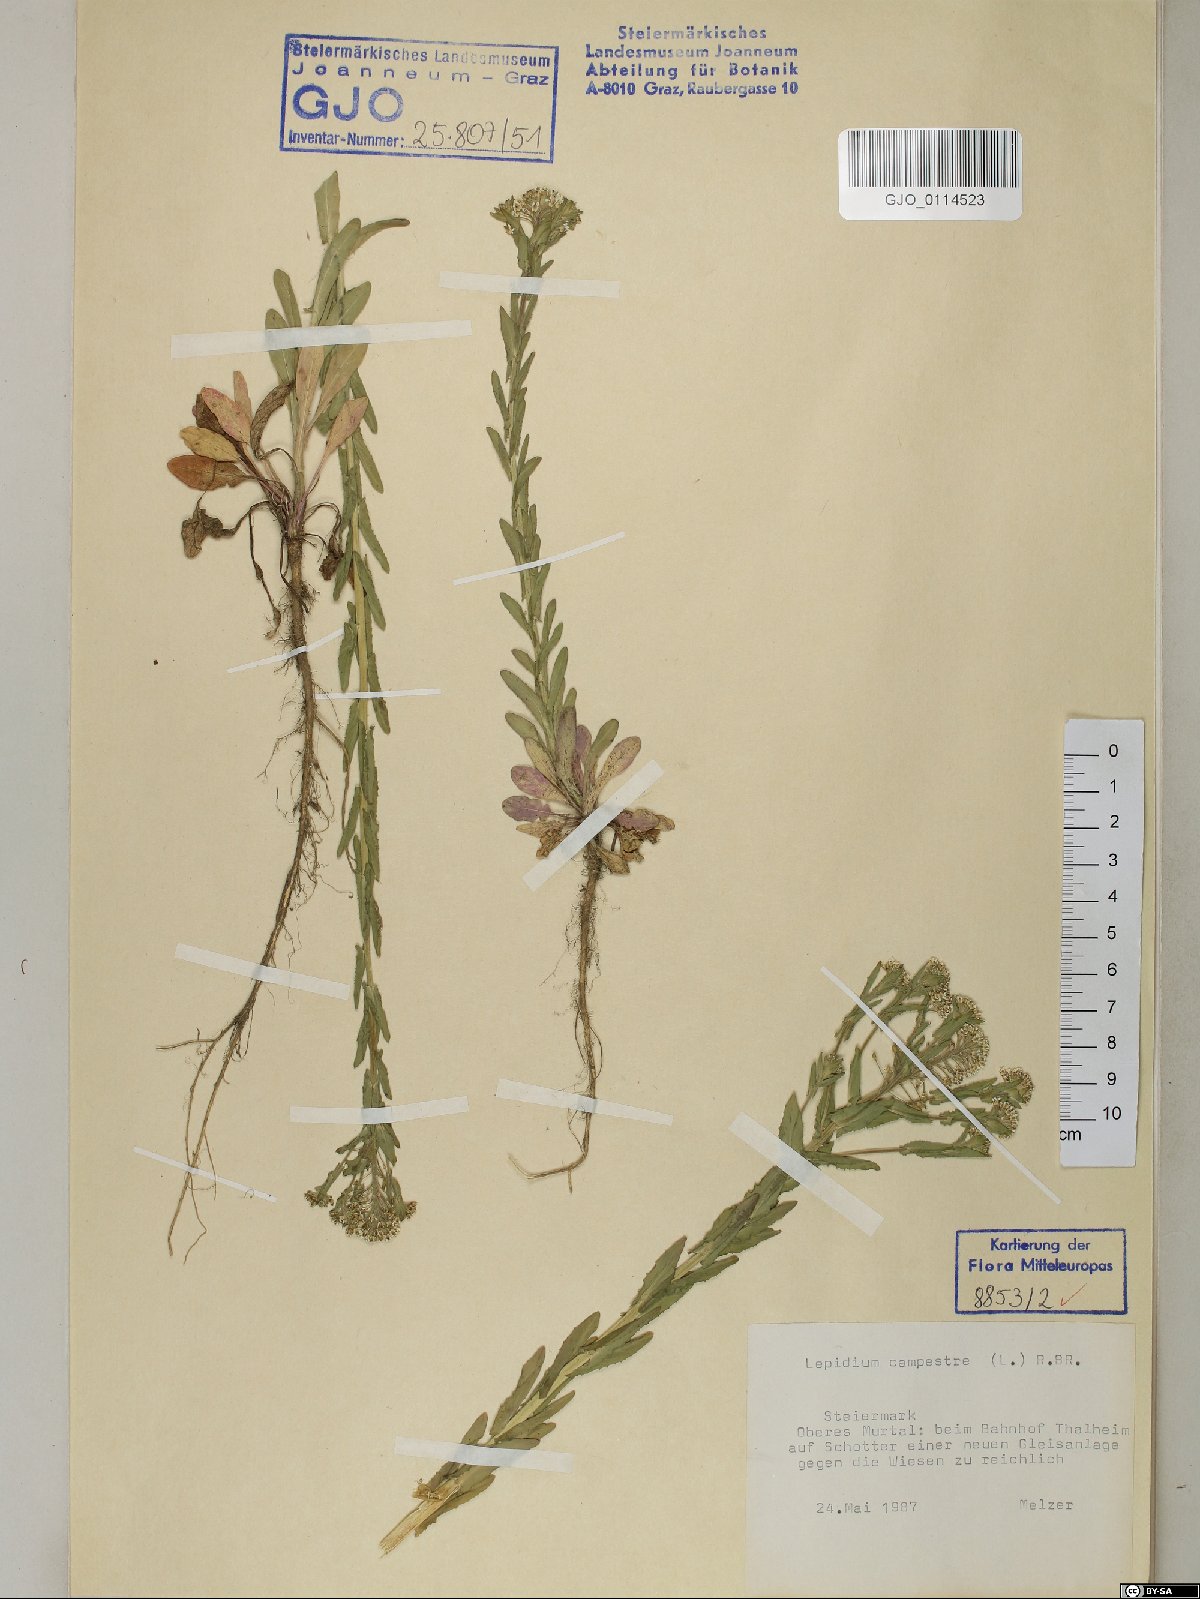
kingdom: Plantae
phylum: Tracheophyta
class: Magnoliopsida
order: Brassicales
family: Brassicaceae
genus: Lepidium
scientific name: Lepidium campestre
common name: Field pepperwort
